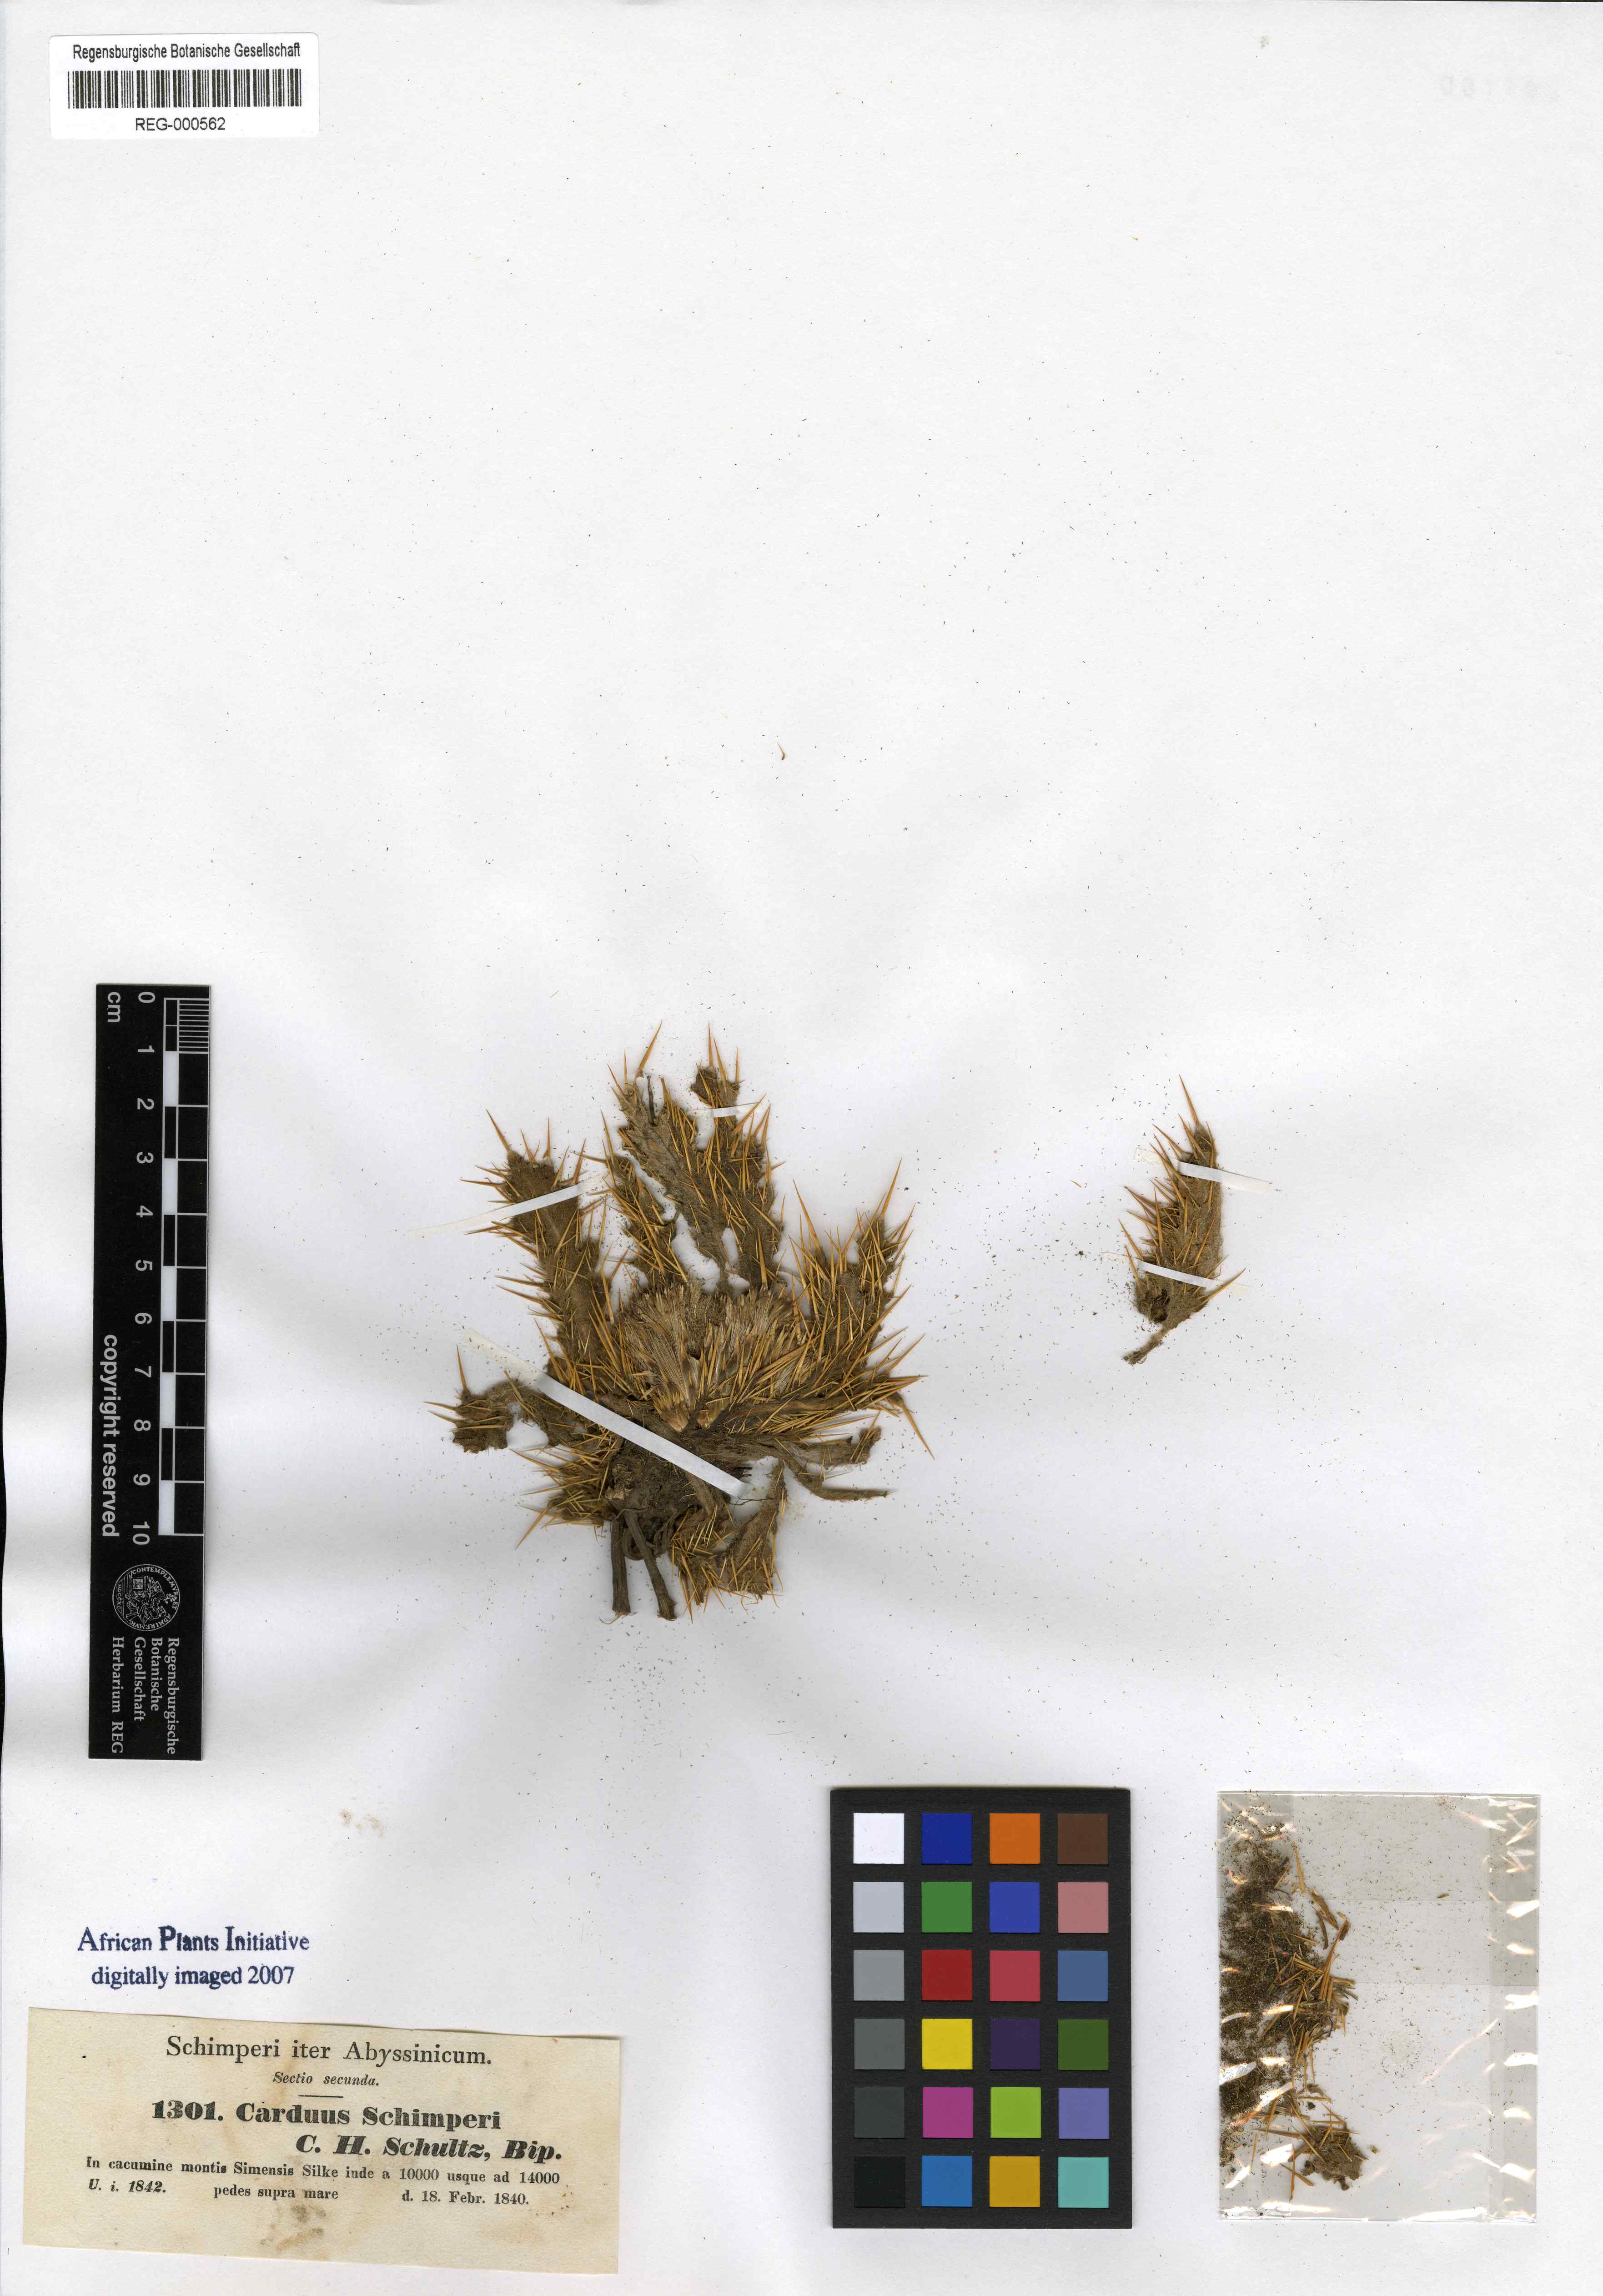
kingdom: Plantae
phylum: Tracheophyta
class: Magnoliopsida
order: Asterales
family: Asteraceae
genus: Carduus
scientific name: Carduus schimperi
